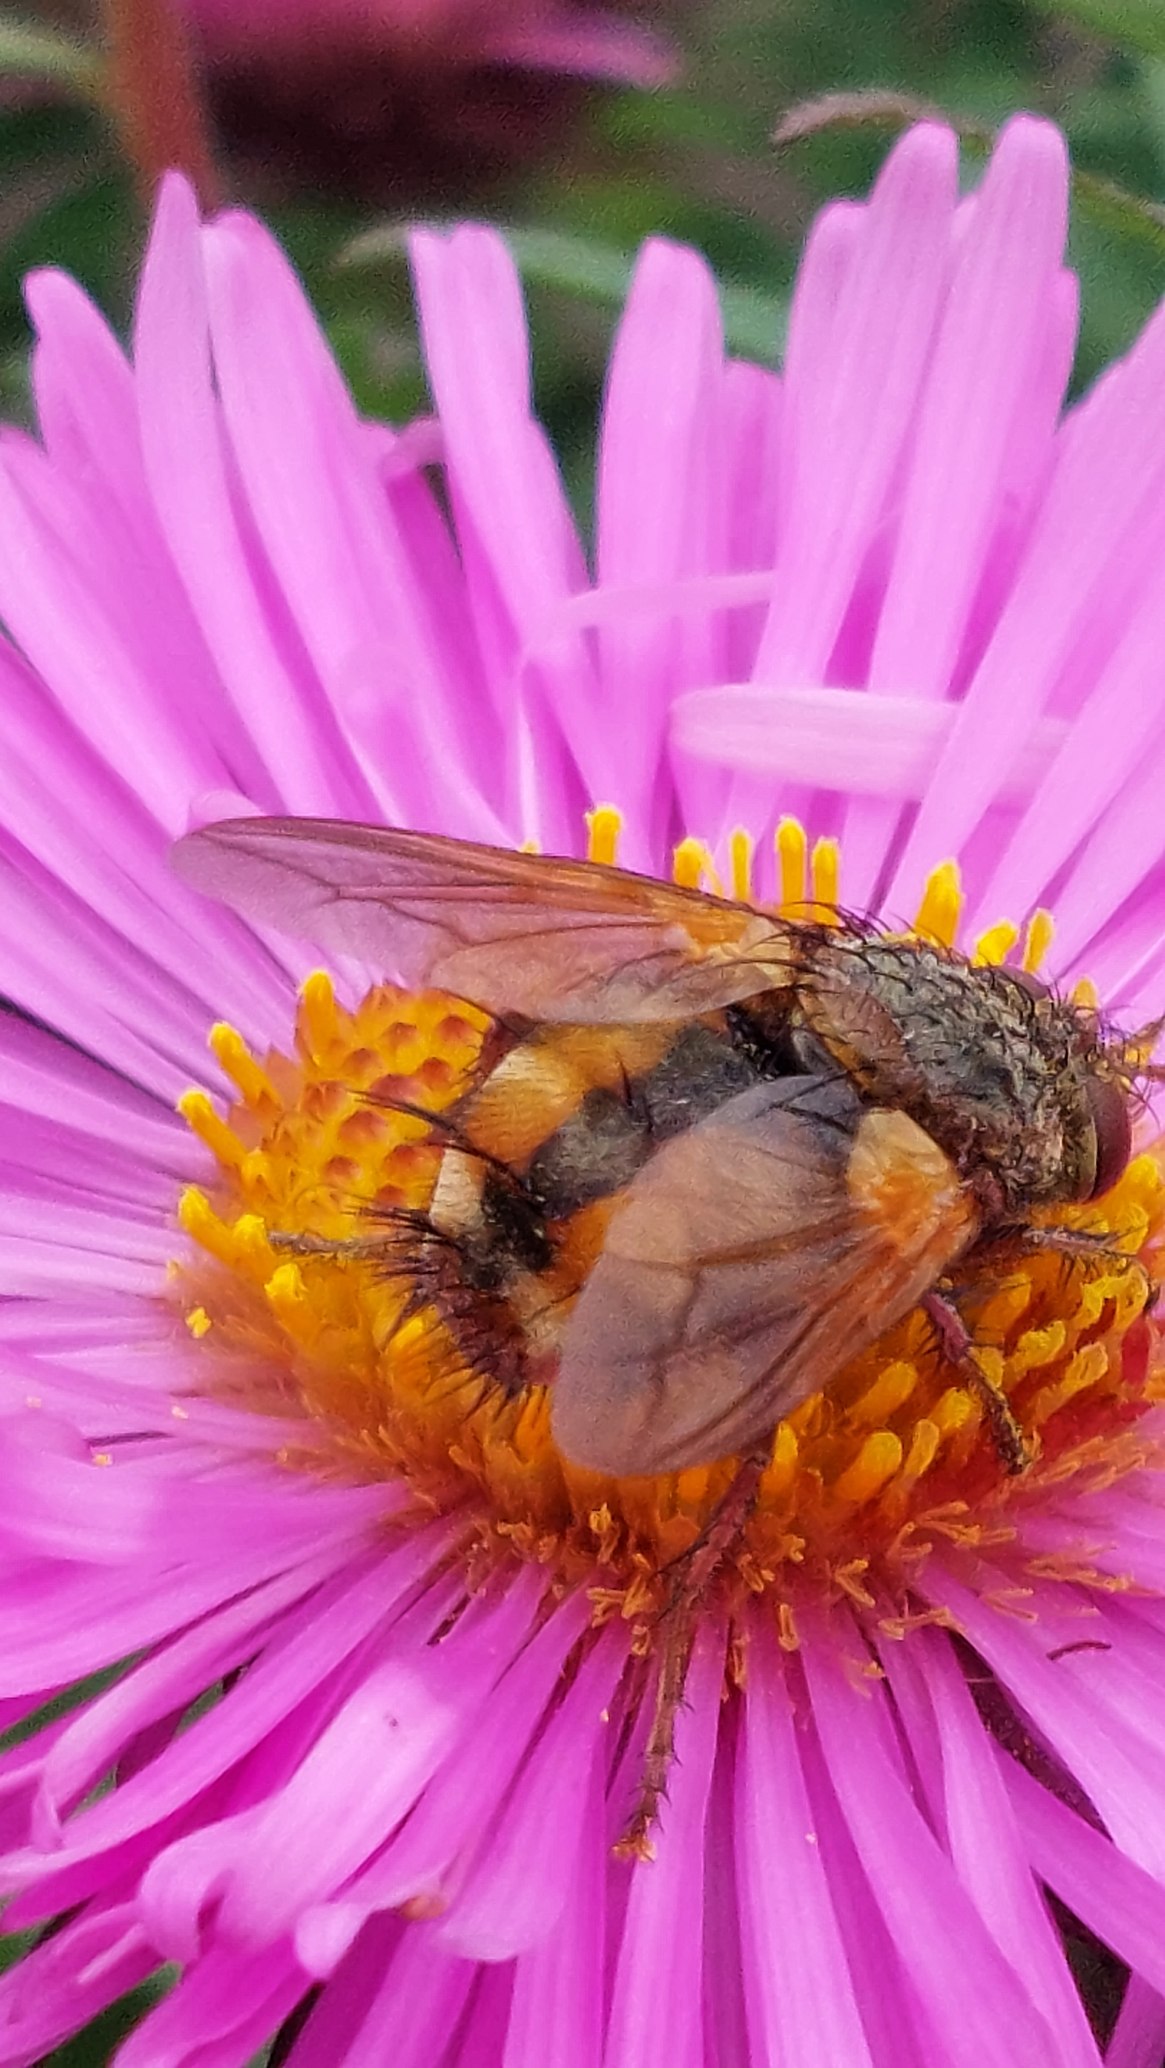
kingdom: Animalia
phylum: Arthropoda
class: Insecta
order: Diptera
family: Tachinidae
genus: Tachina
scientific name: Tachina fera
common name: Mellemfluen oskar
